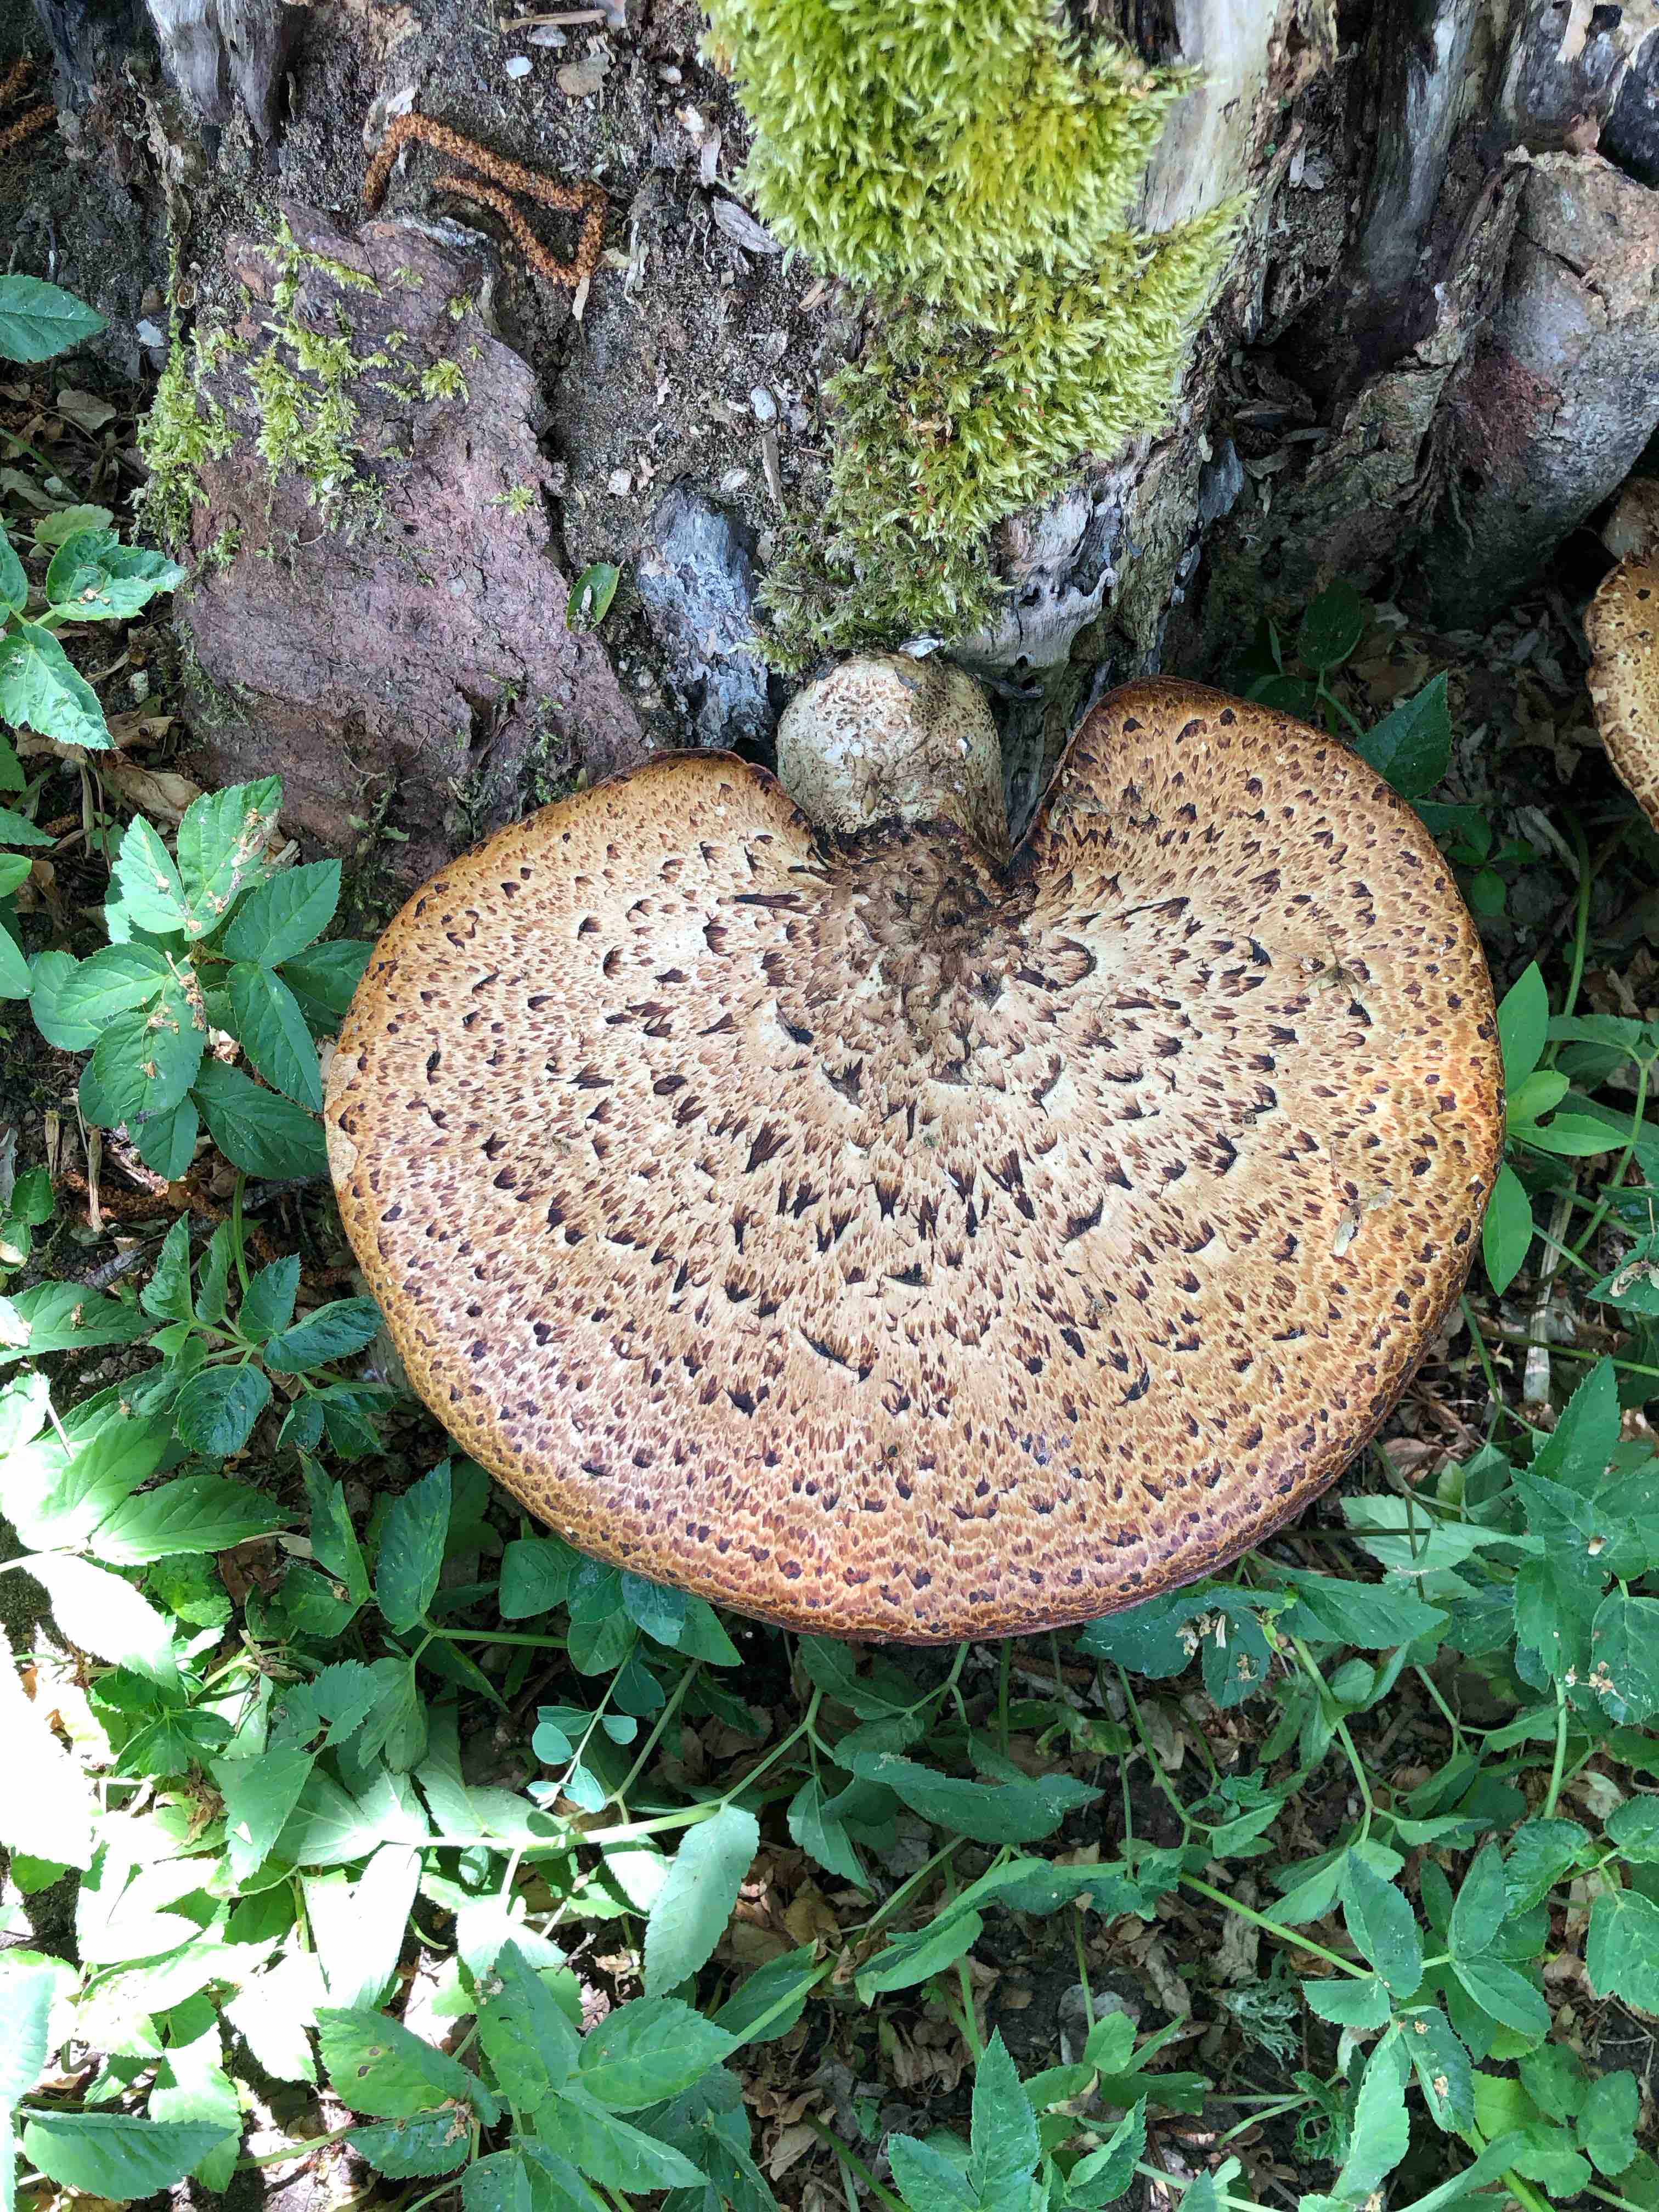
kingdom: Fungi
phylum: Basidiomycota
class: Agaricomycetes
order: Polyporales
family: Polyporaceae
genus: Cerioporus
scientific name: Cerioporus squamosus
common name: skællet stilkporesvamp
